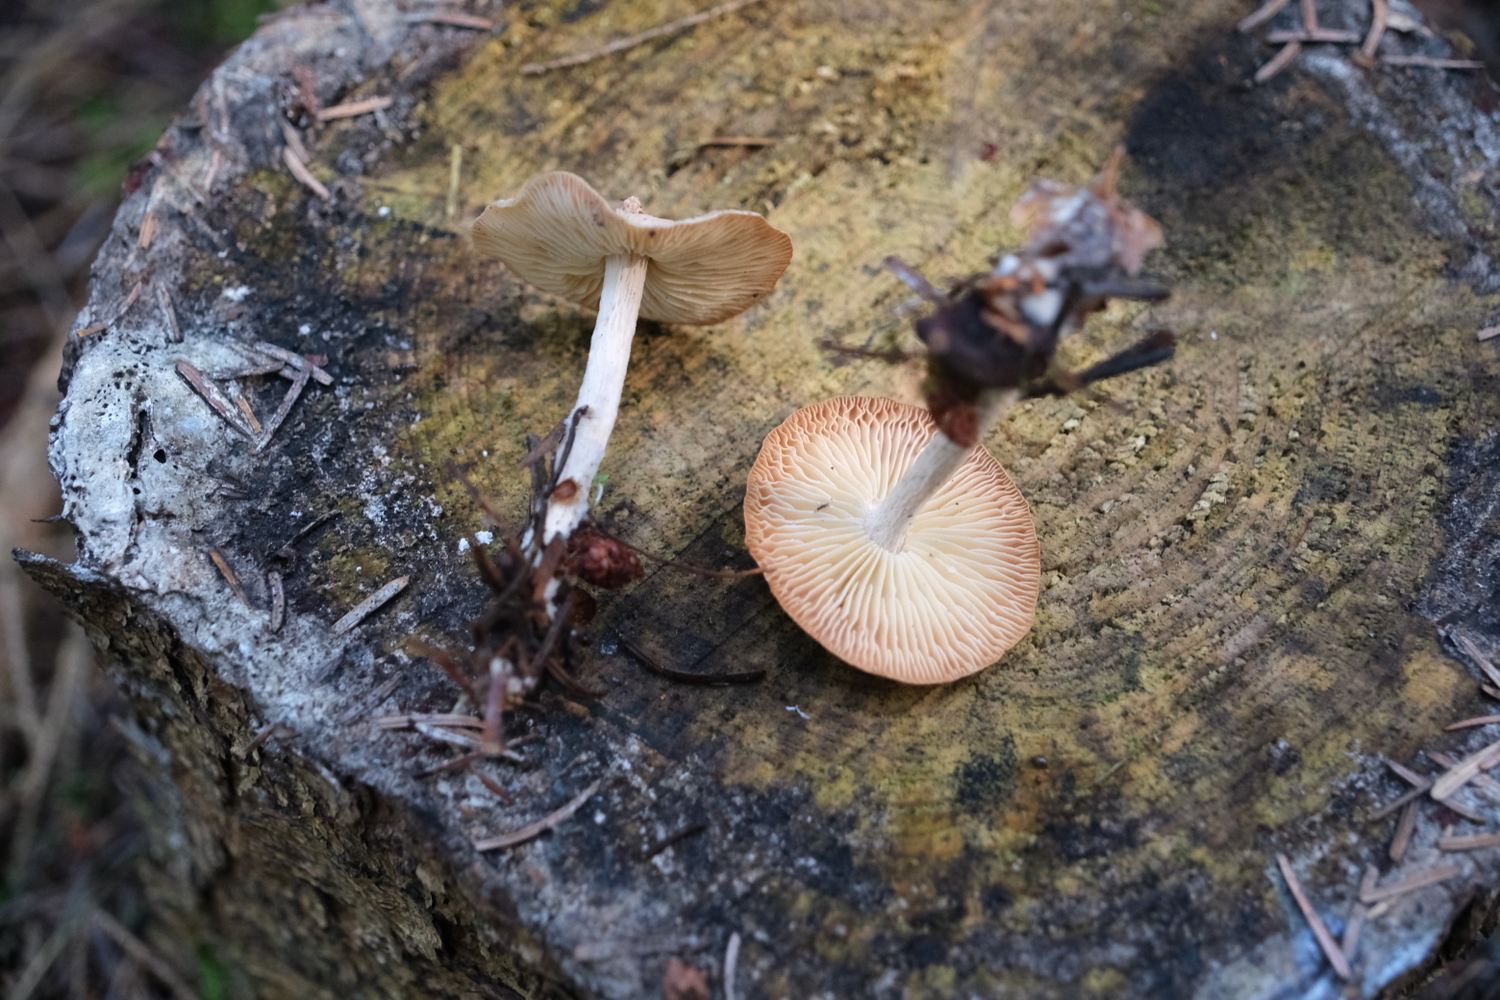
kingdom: Fungi
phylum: Basidiomycota
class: Agaricomycetes
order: Agaricales
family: Omphalotaceae
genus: Collybiopsis
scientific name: Collybiopsis peronata
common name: bestøvlet fladhat
